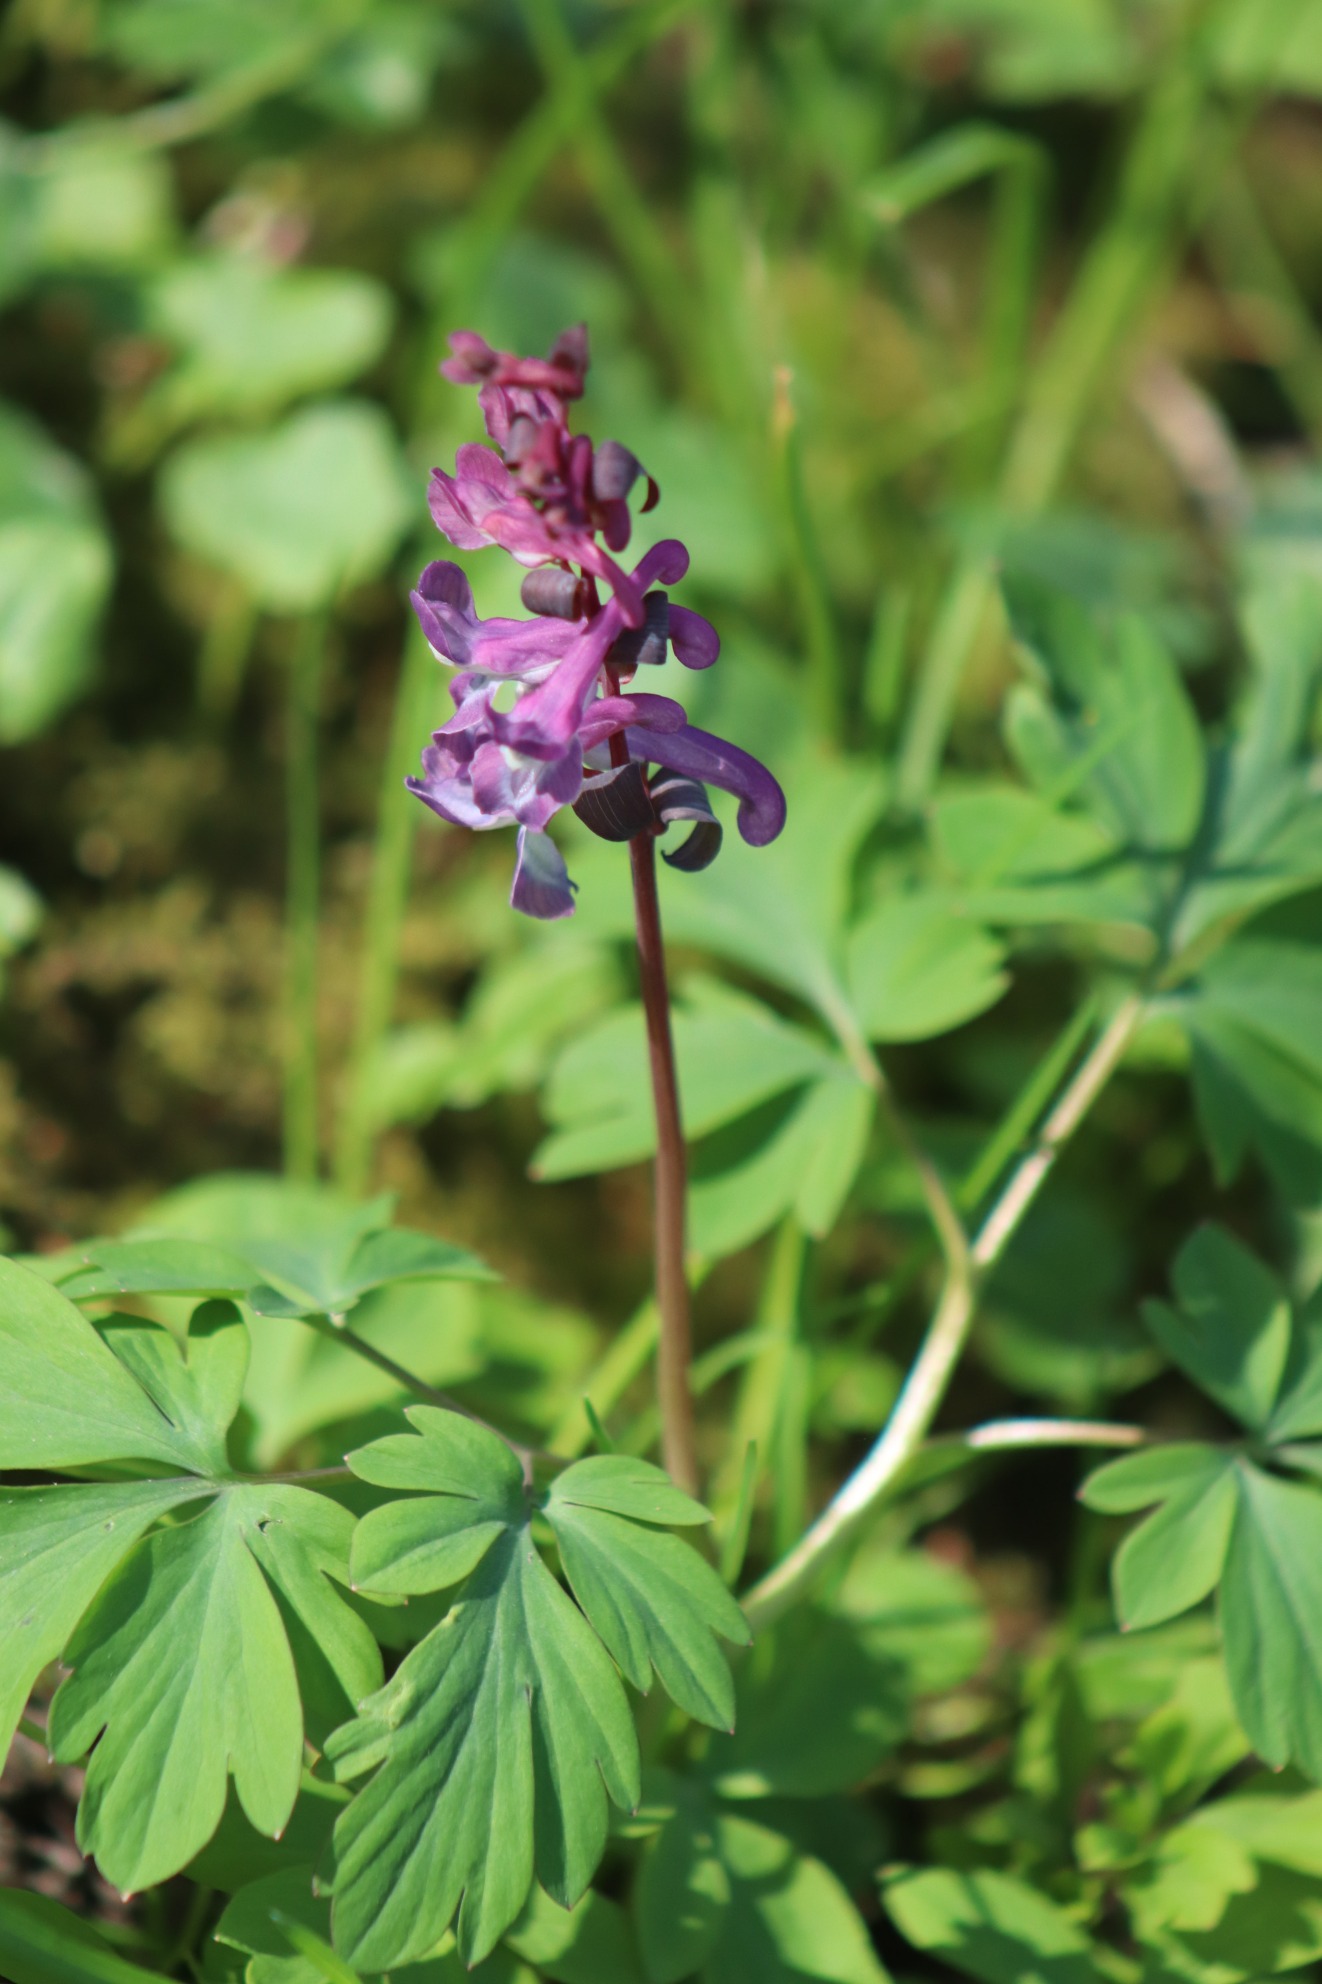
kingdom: Plantae
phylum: Tracheophyta
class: Magnoliopsida
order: Ranunculales
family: Papaveraceae
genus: Corydalis
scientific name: Corydalis cava
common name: Hulrodet lærkespore
